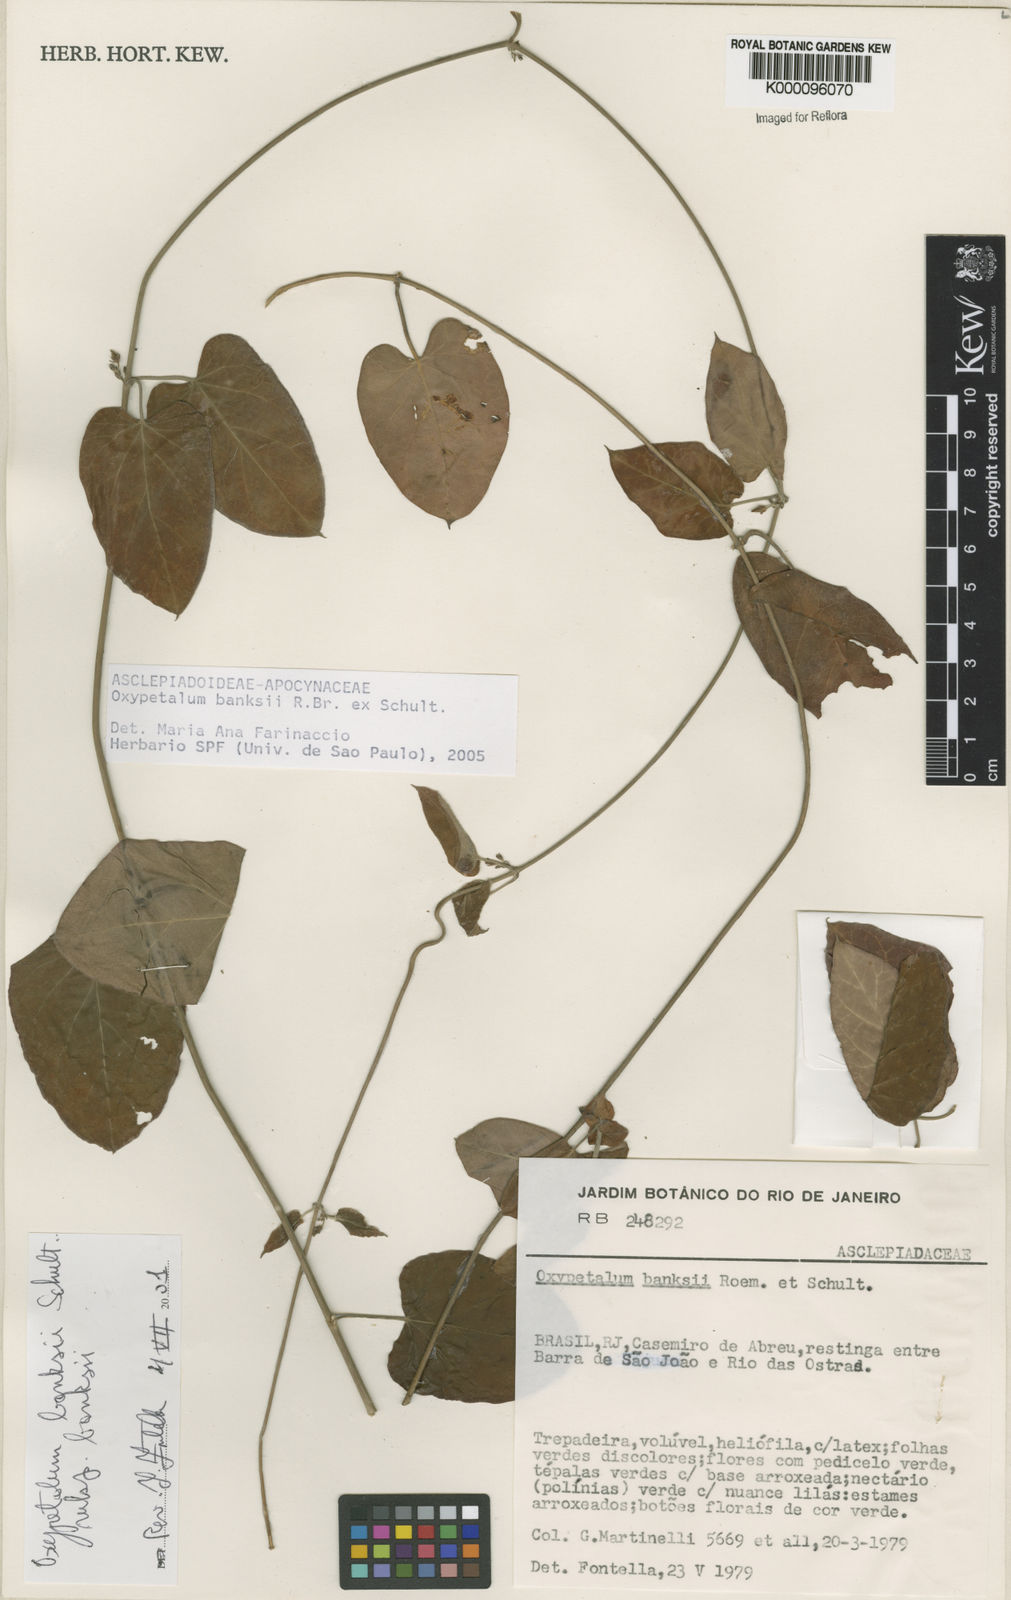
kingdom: Plantae
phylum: Tracheophyta
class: Magnoliopsida
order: Gentianales
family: Apocynaceae
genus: Oxypetalum
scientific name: Oxypetalum banksii
